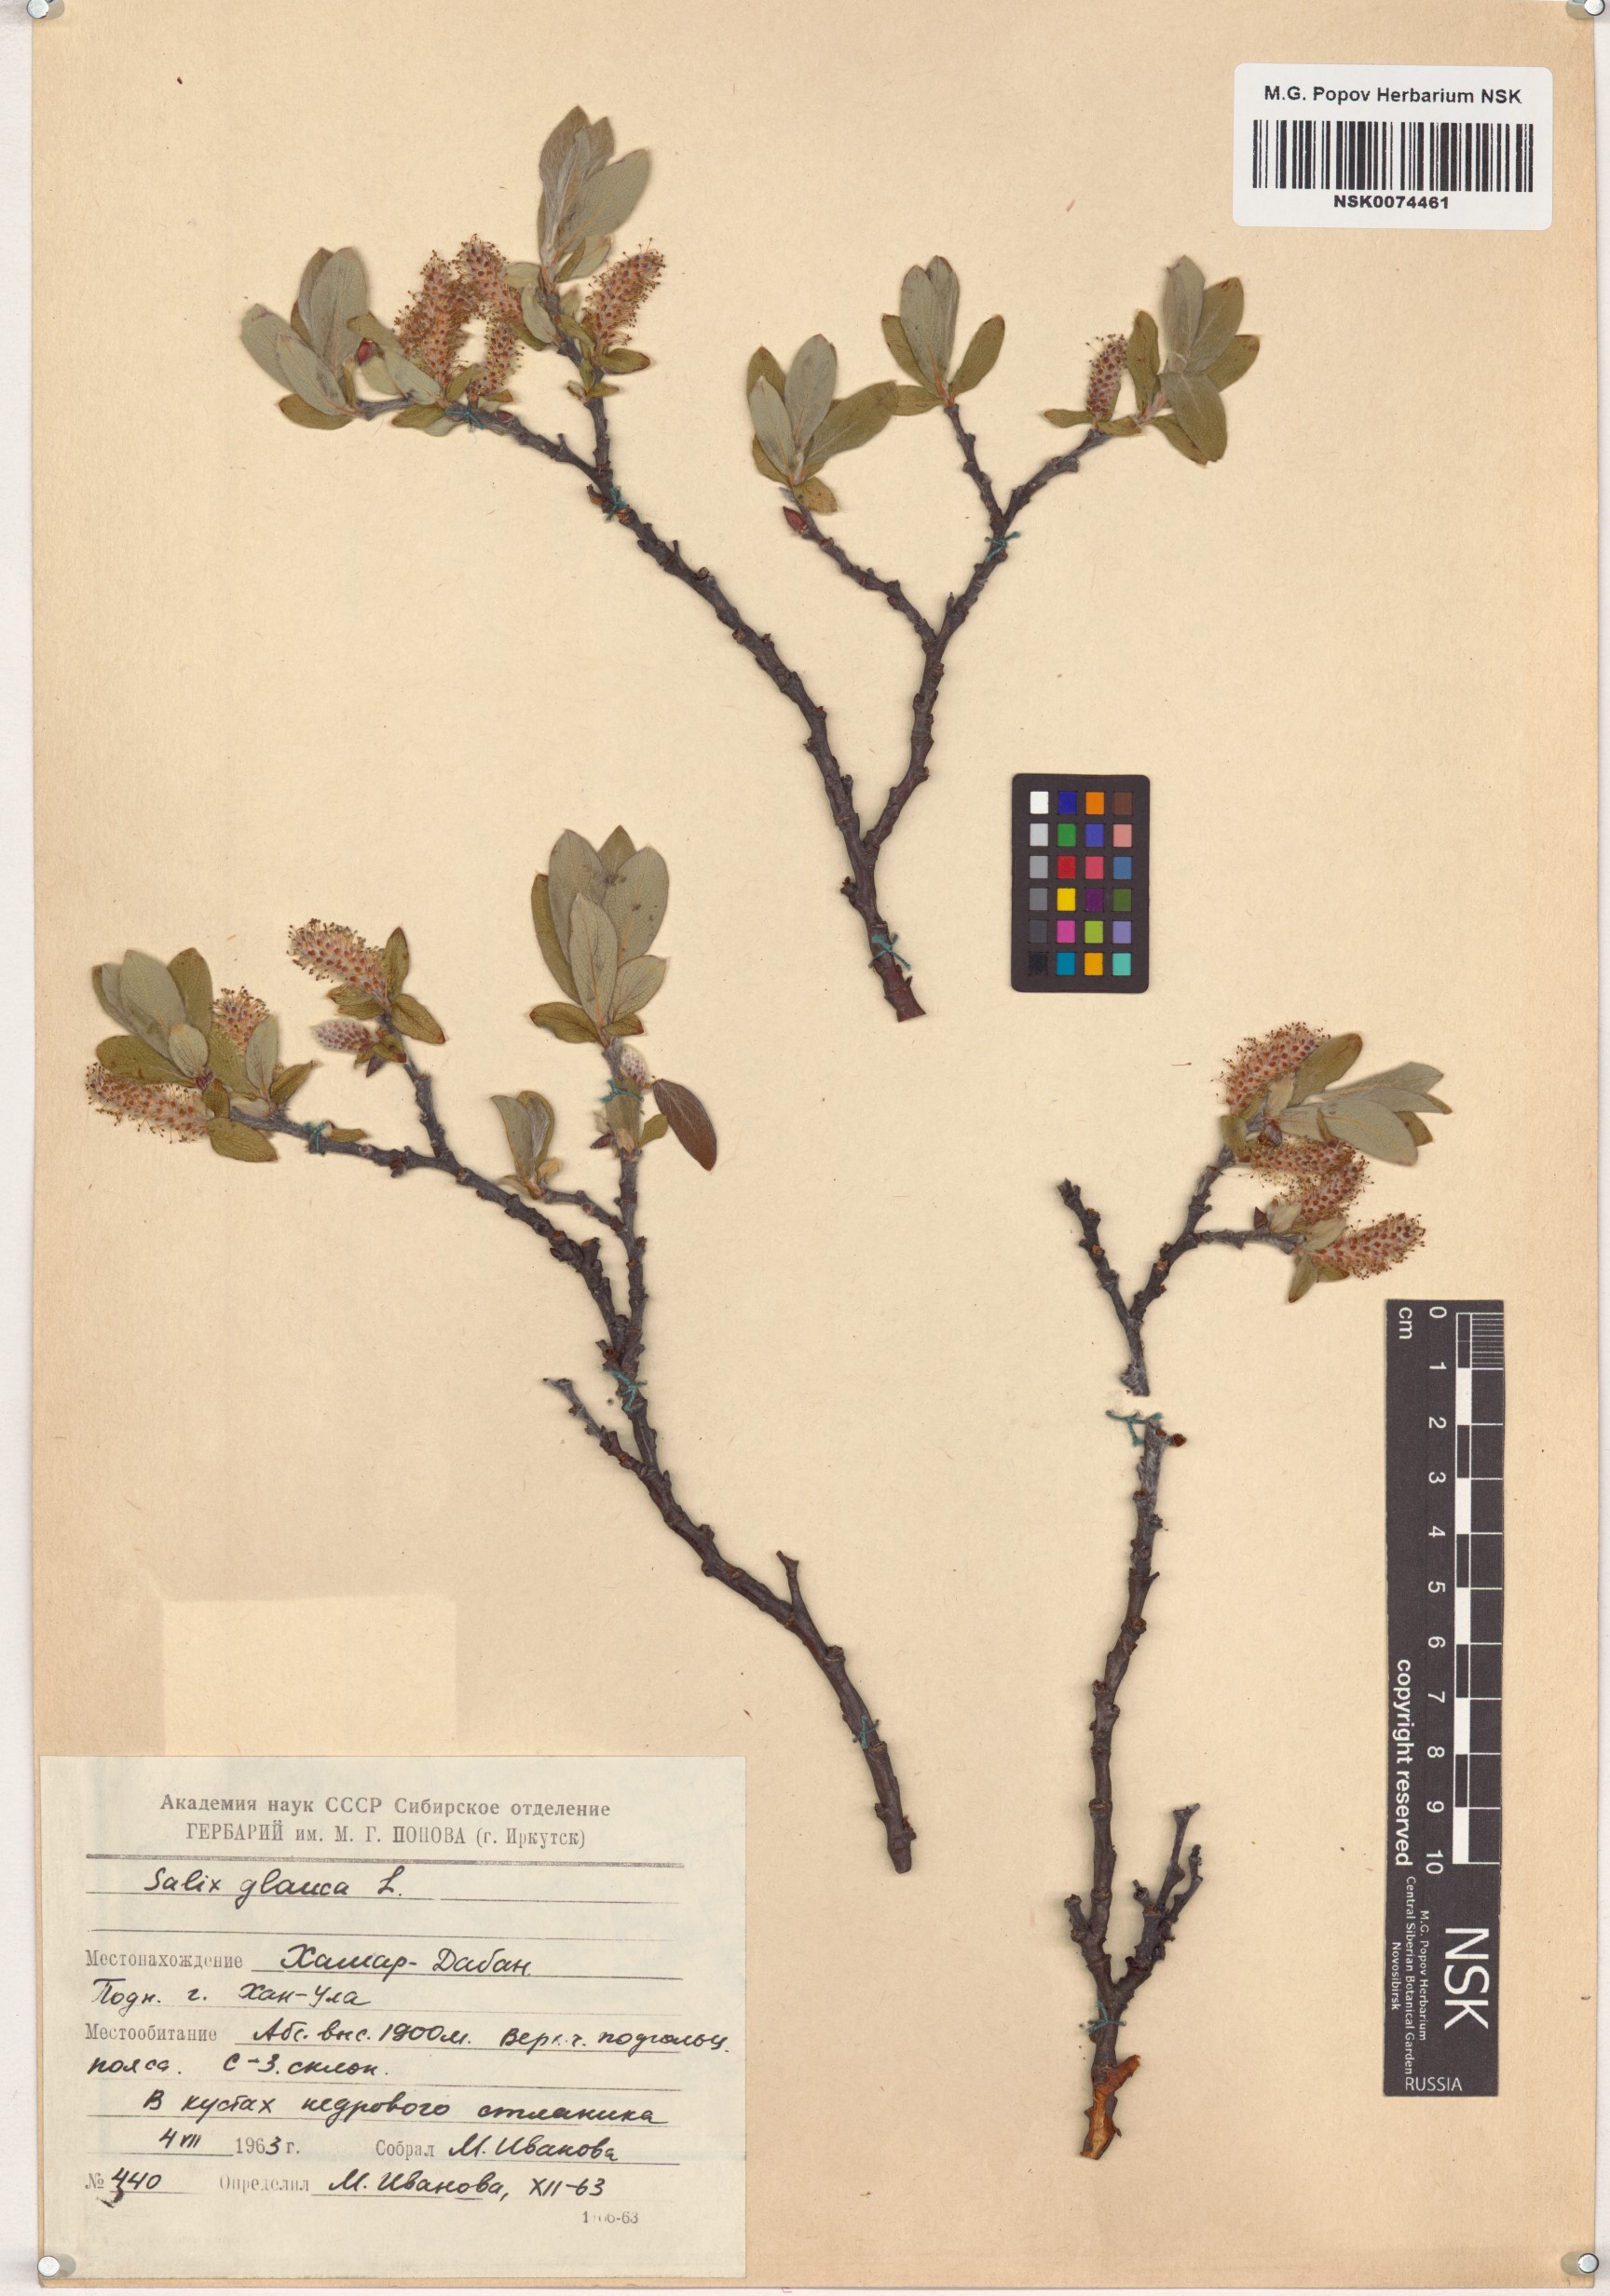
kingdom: Plantae
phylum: Tracheophyta
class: Magnoliopsida
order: Malpighiales
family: Salicaceae
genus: Salix
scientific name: Salix glauca
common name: Glaucous willow
